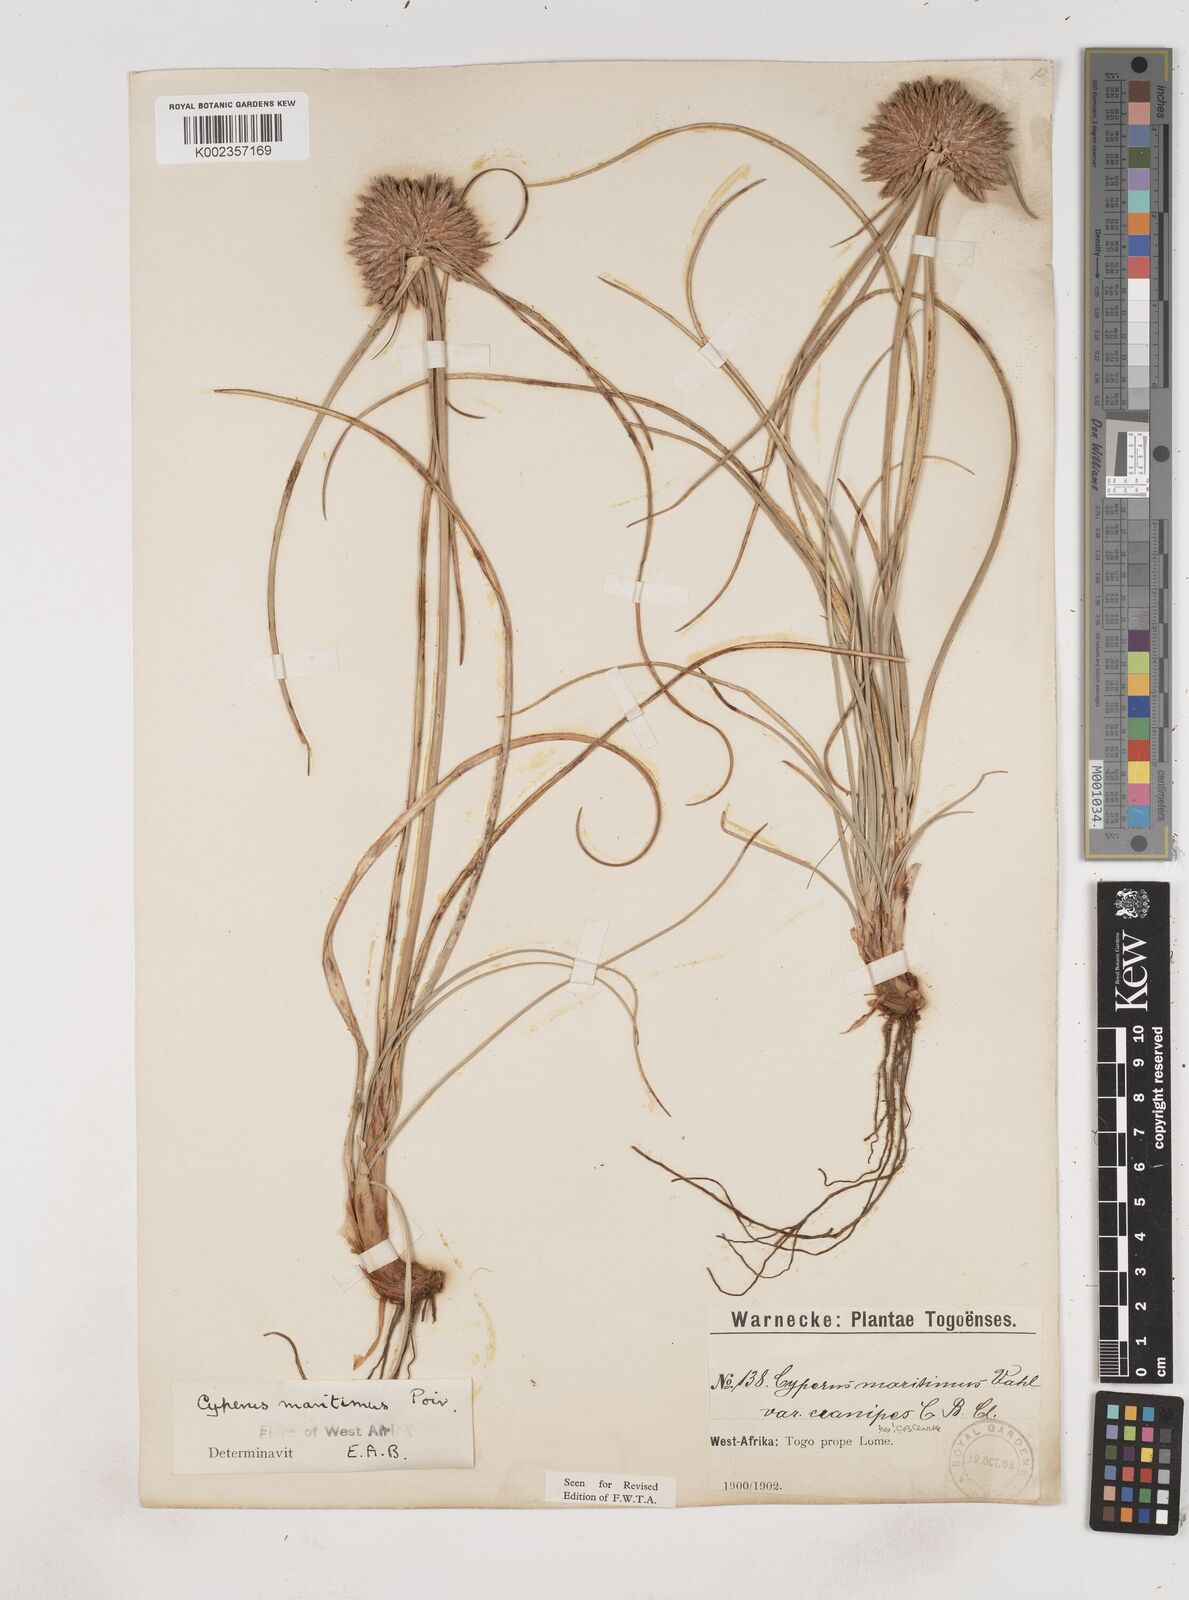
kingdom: Plantae
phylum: Tracheophyta
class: Liliopsida
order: Poales
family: Cyperaceae
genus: Cyperus
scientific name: Cyperus crassipes
